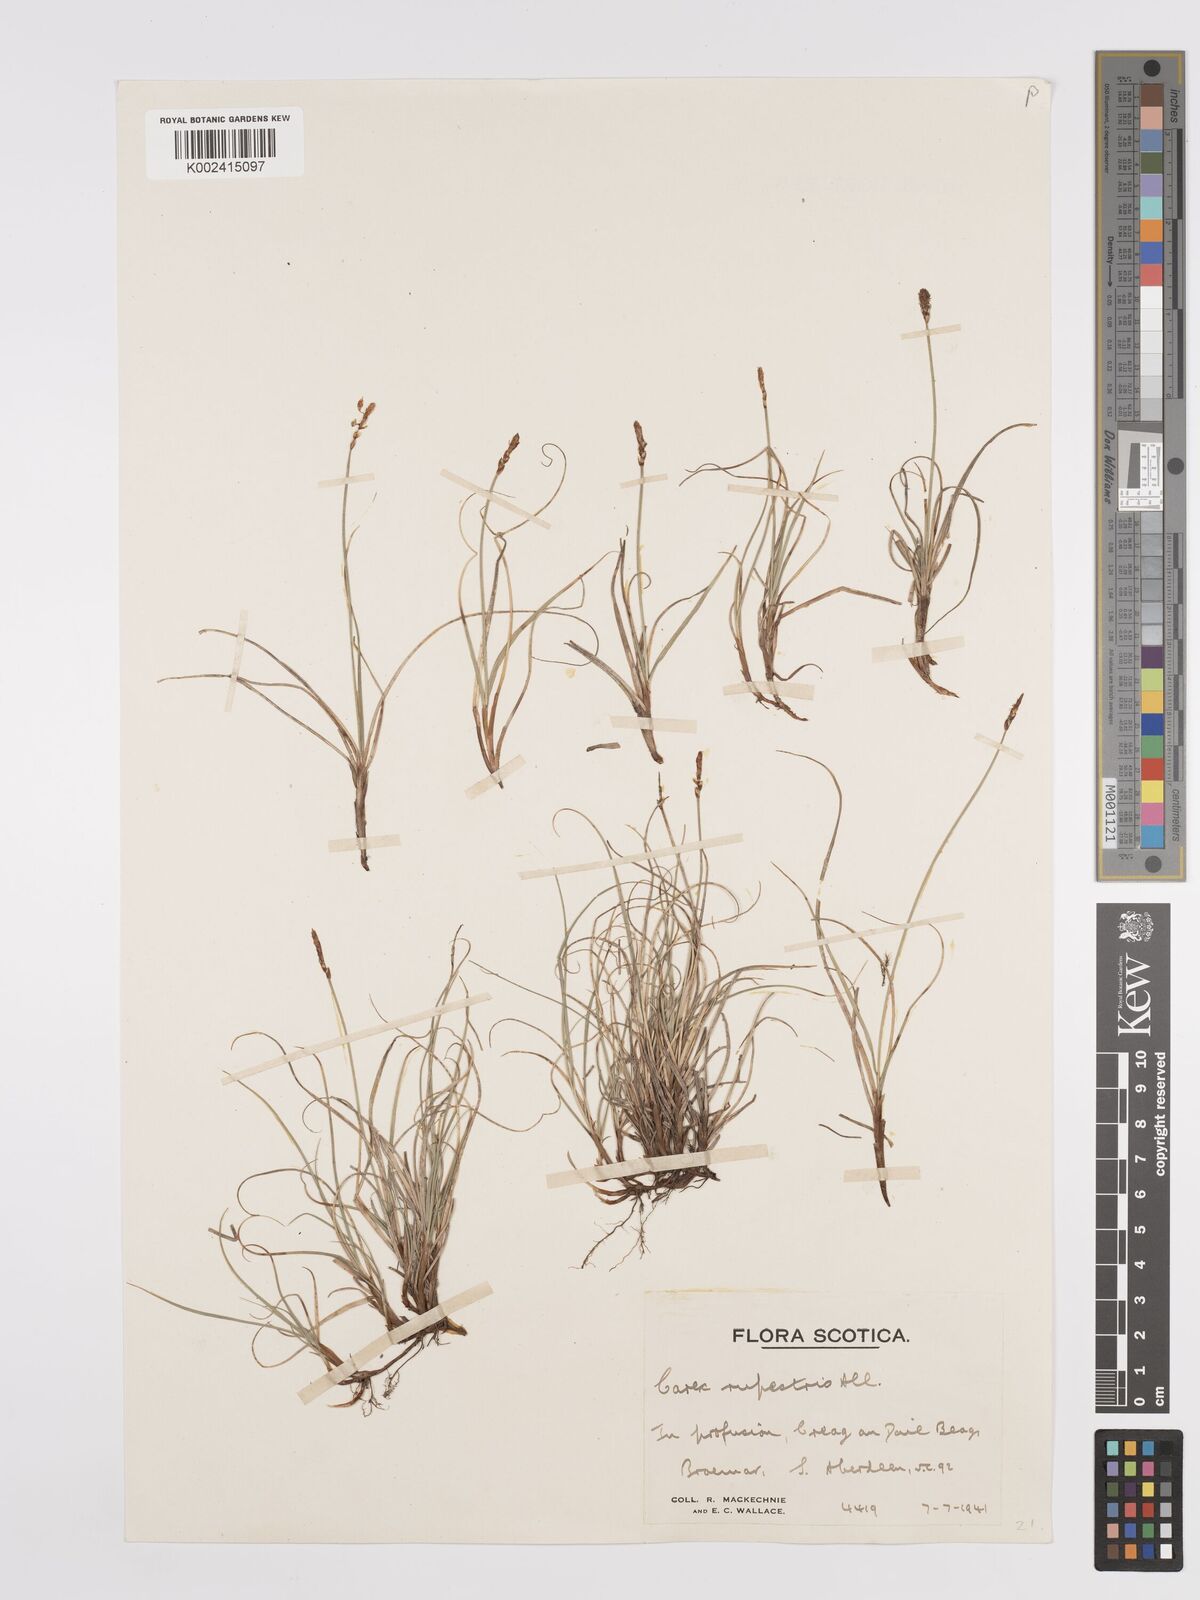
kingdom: Plantae
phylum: Tracheophyta
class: Liliopsida
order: Poales
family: Cyperaceae
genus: Carex
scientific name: Carex rupestris
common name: Rock sedge
